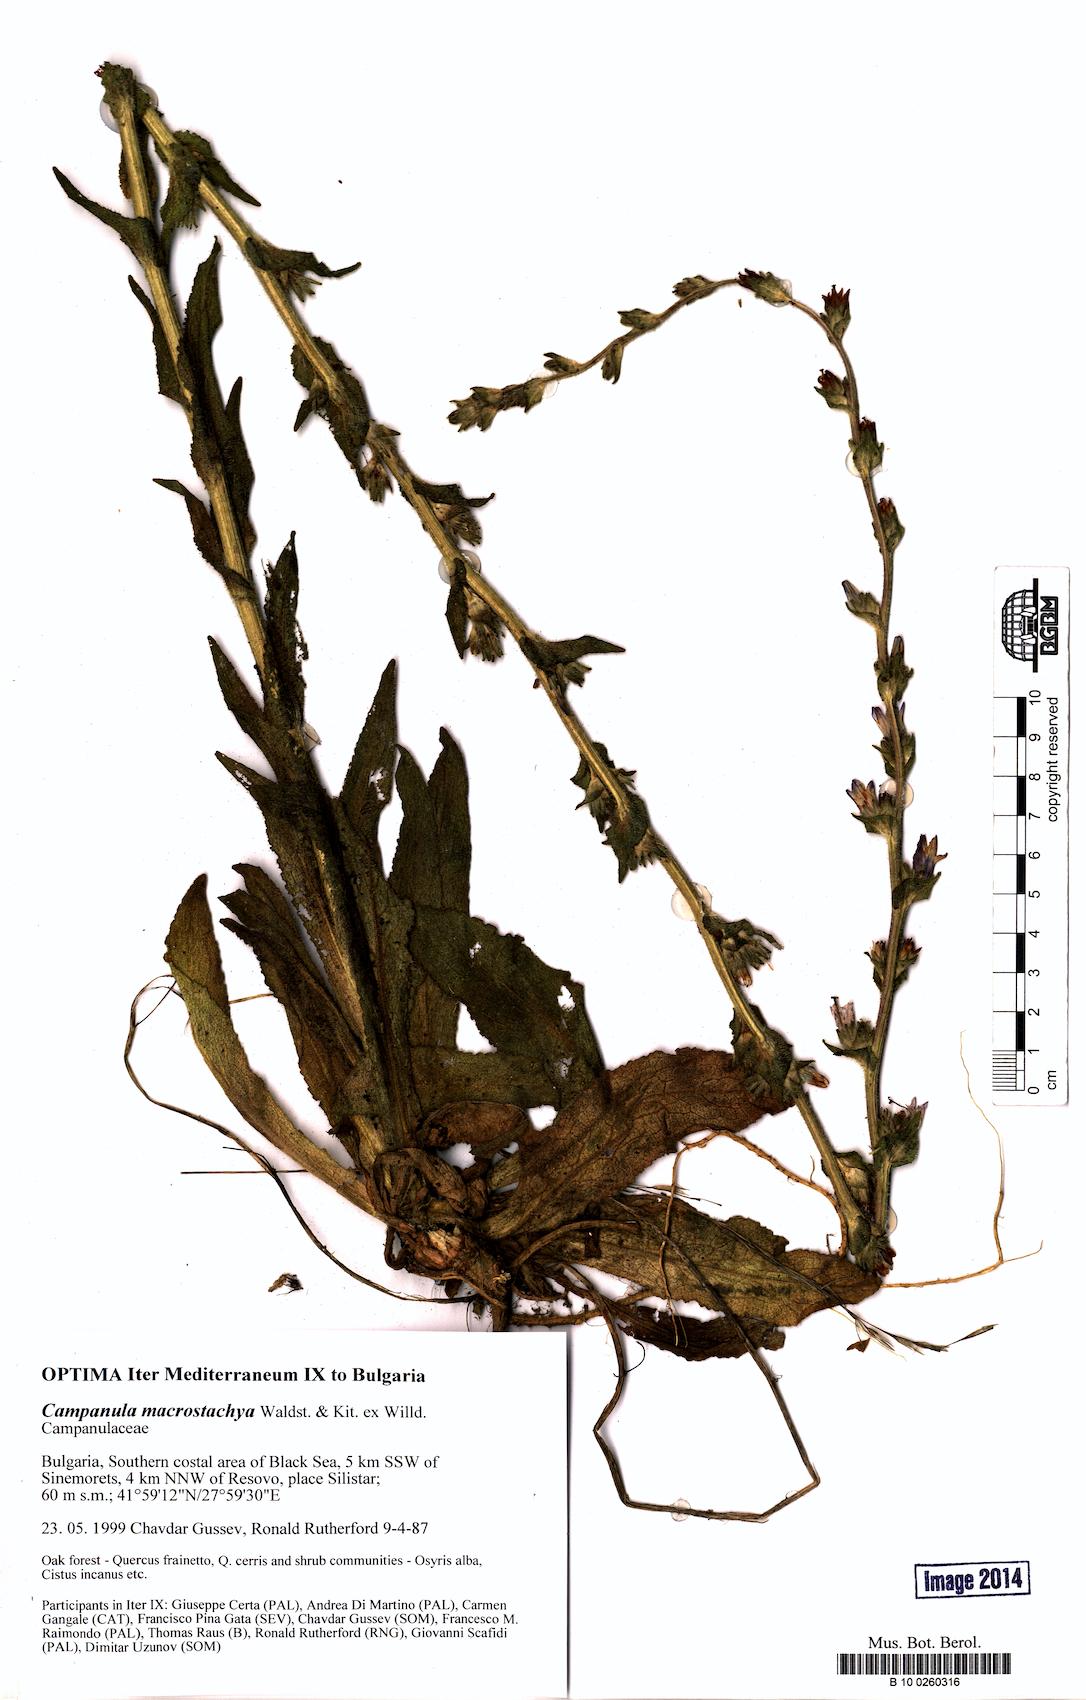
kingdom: Plantae
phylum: Tracheophyta
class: Magnoliopsida
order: Asterales
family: Campanulaceae
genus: Campanula
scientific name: Campanula macrostachya
